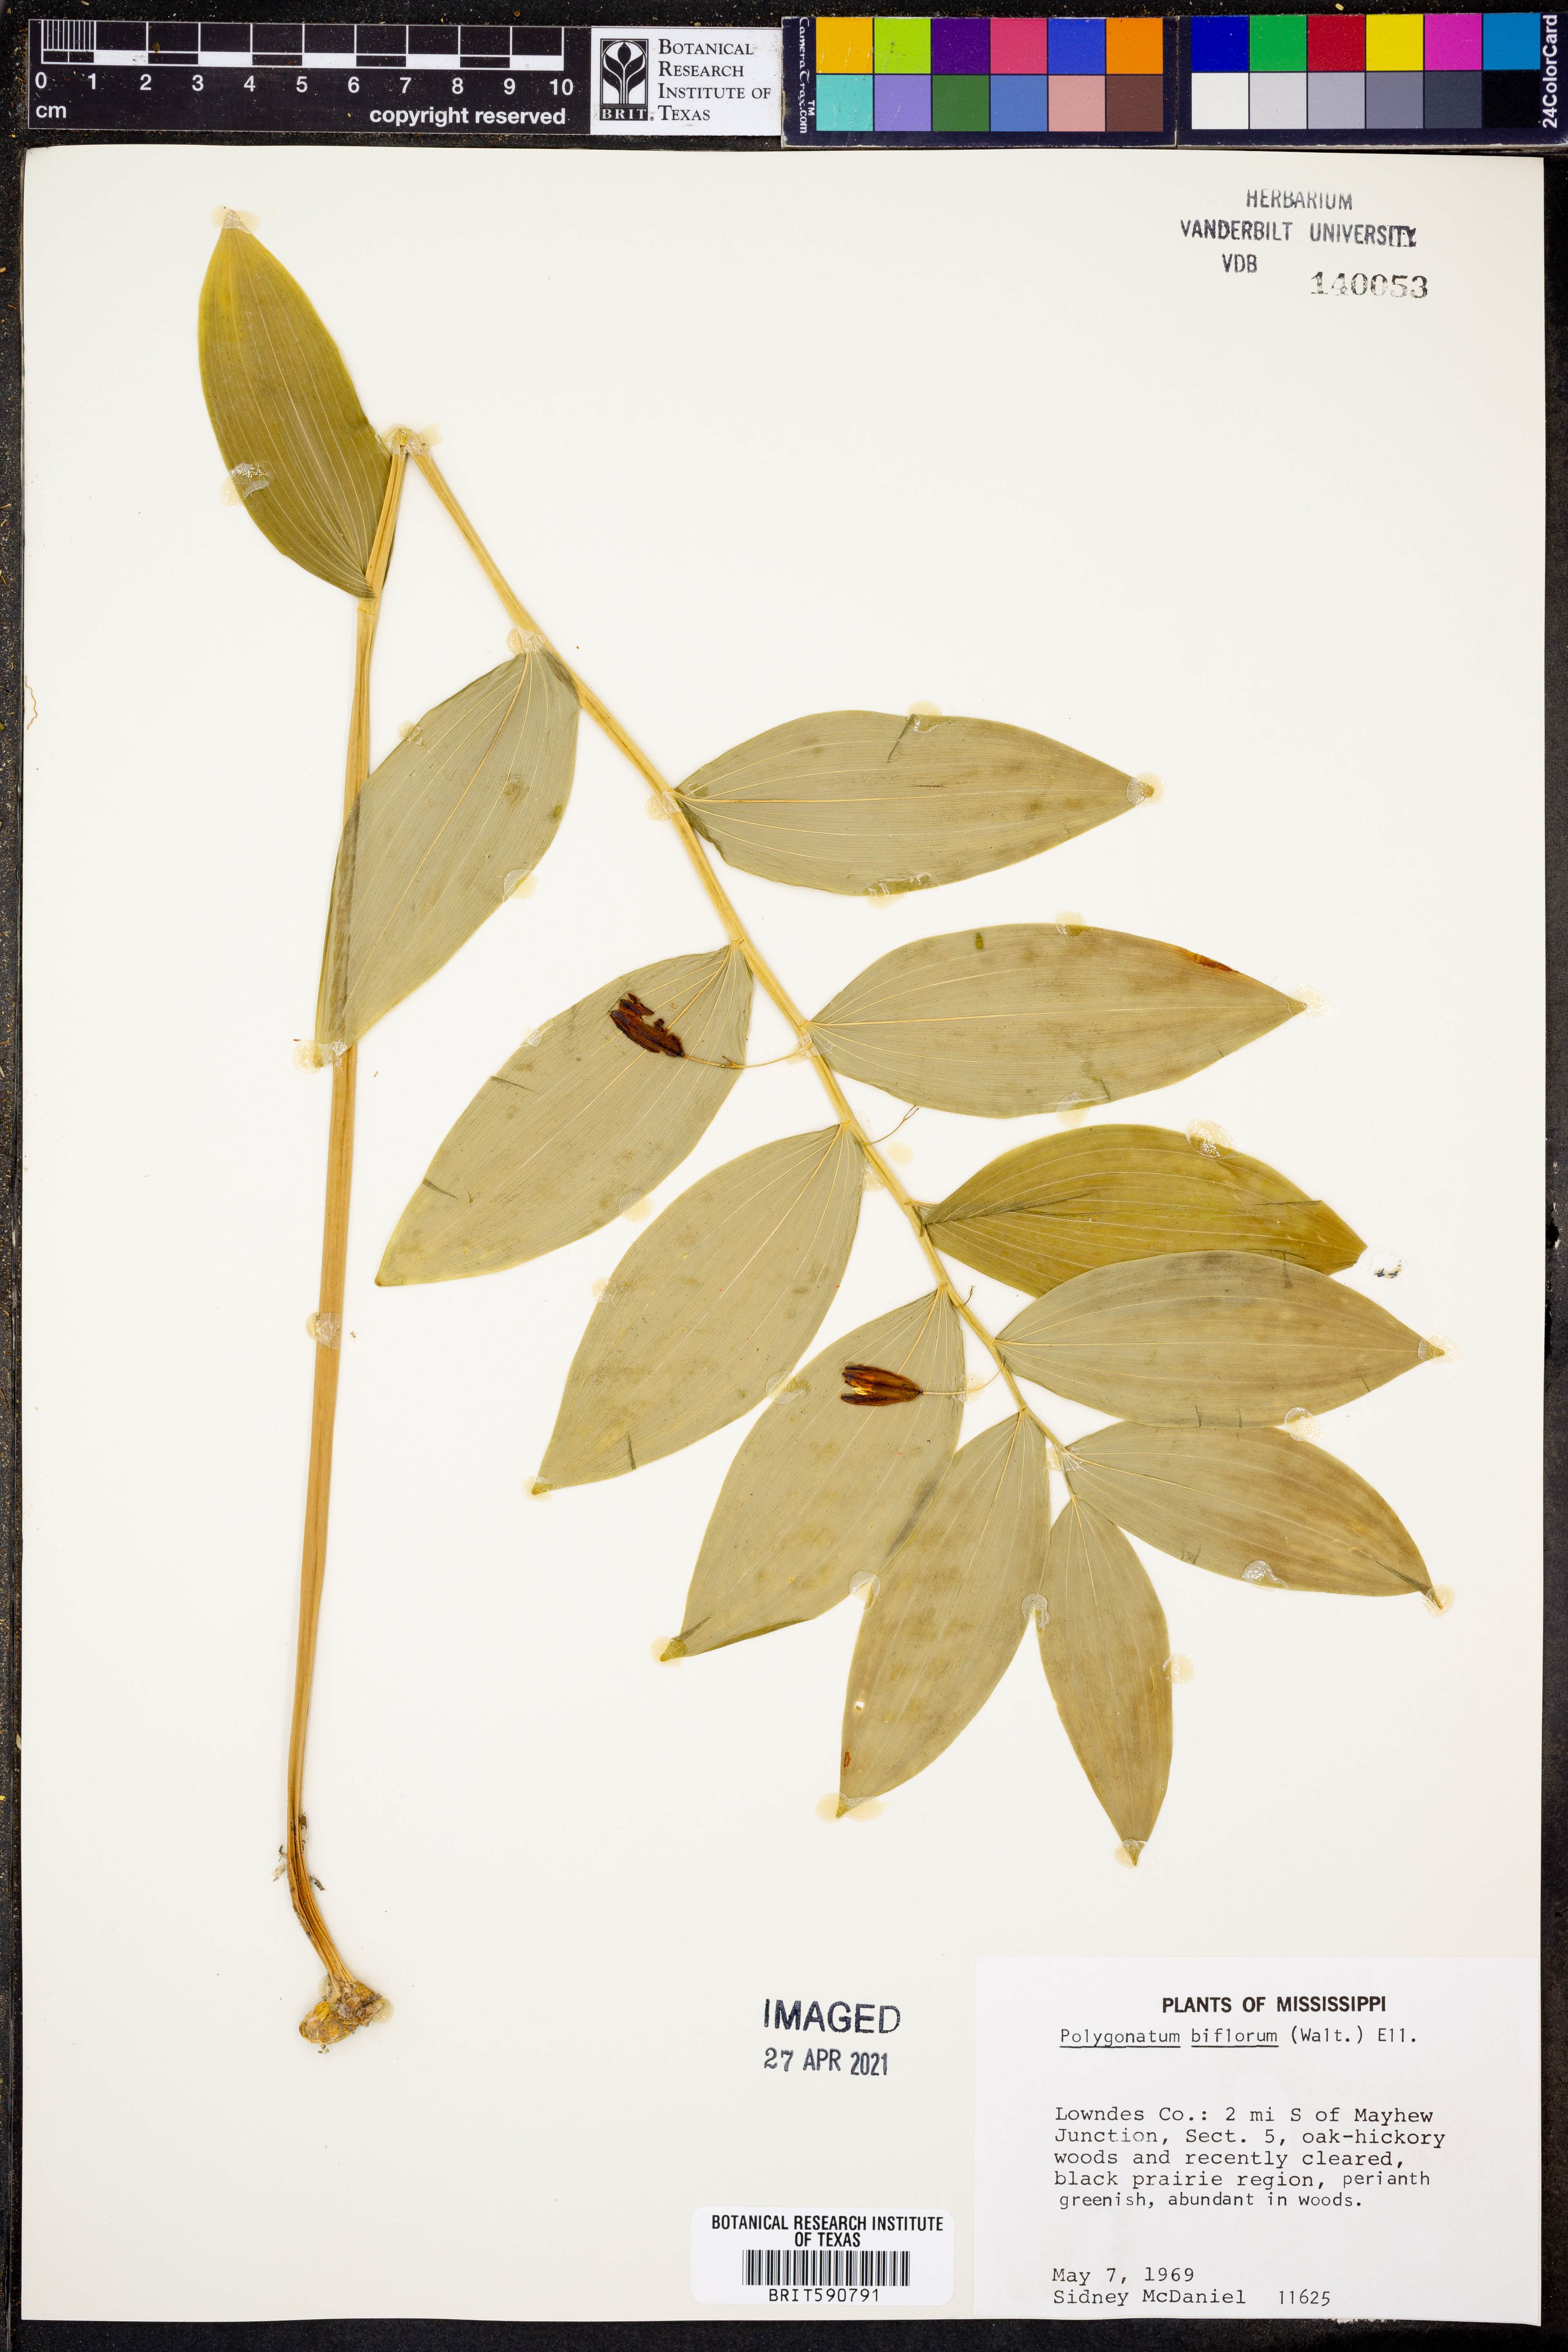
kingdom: Plantae
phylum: Tracheophyta
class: Liliopsida
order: Asparagales
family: Asparagaceae
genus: Polygonatum
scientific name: Polygonatum biflorum
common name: American solomon's-seal
